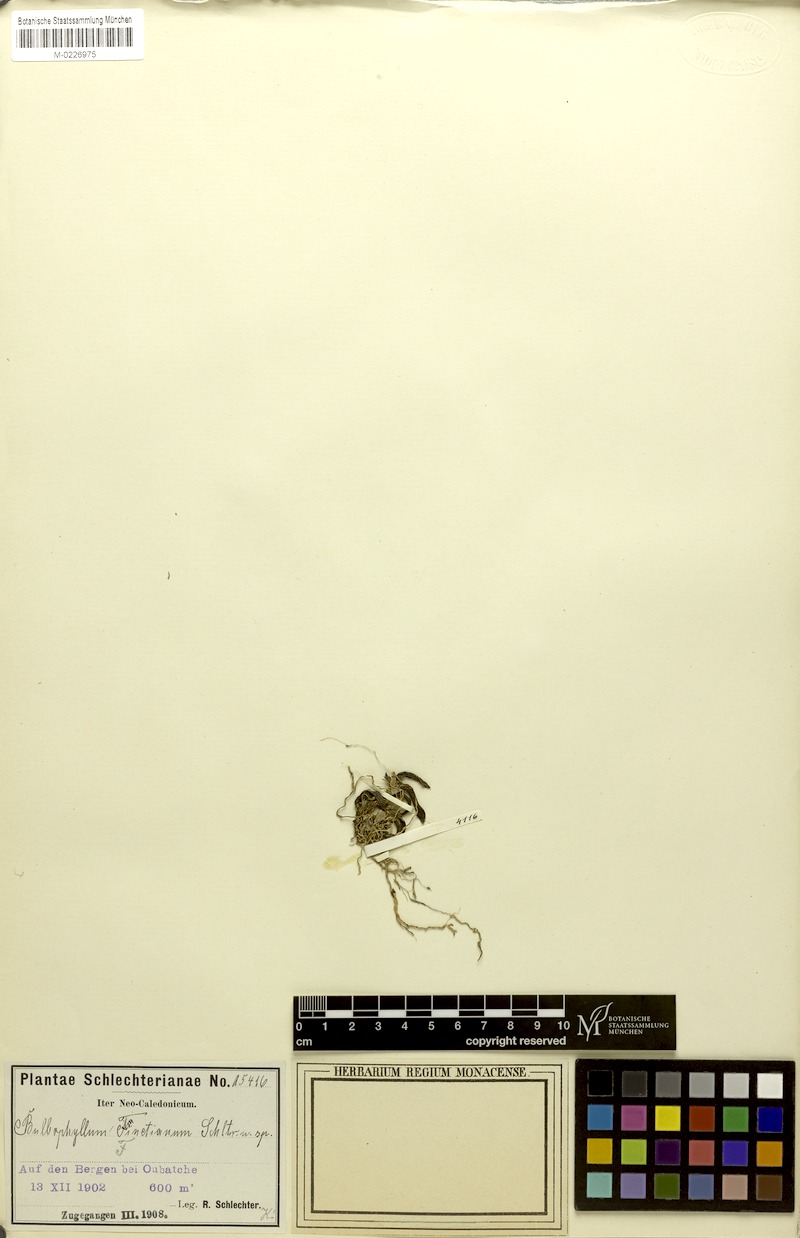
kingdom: Plantae
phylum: Tracheophyta
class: Liliopsida
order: Asparagales
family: Orchidaceae
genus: Bulbophyllum
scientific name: Bulbophyllum betchei
